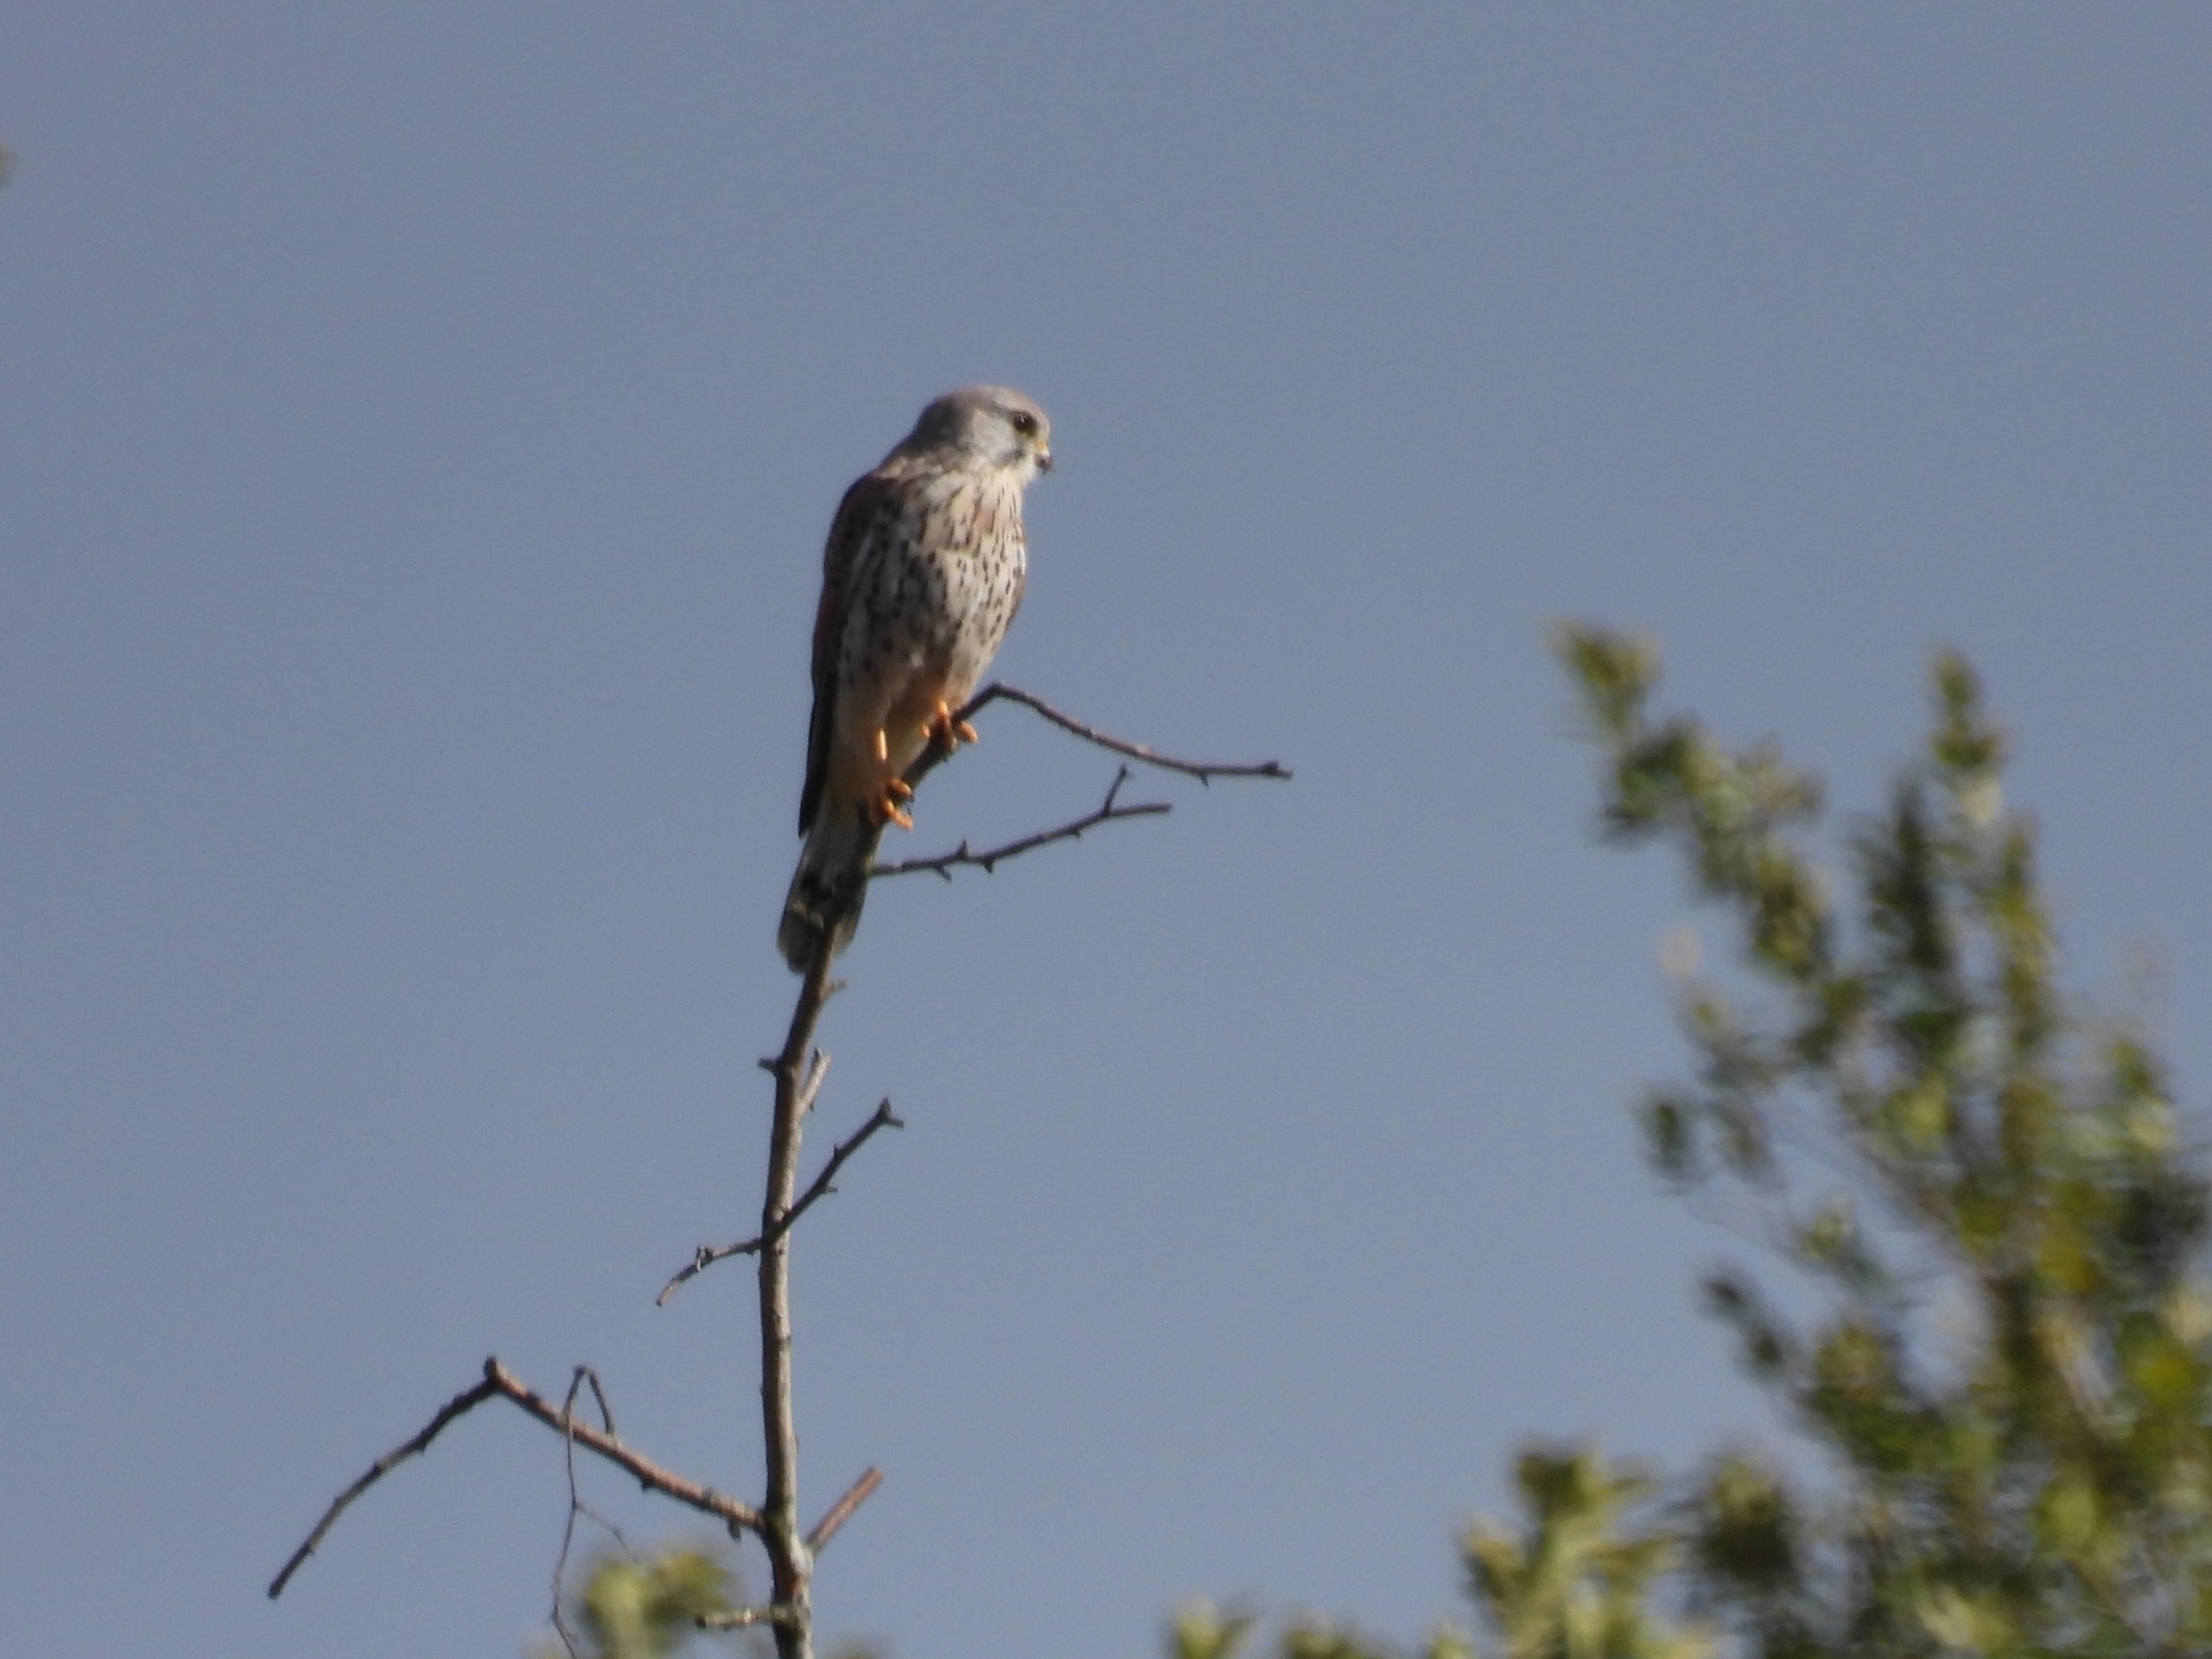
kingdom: Animalia
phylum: Chordata
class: Aves
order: Falconiformes
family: Falconidae
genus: Falco
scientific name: Falco tinnunculus
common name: Tårnfalk
